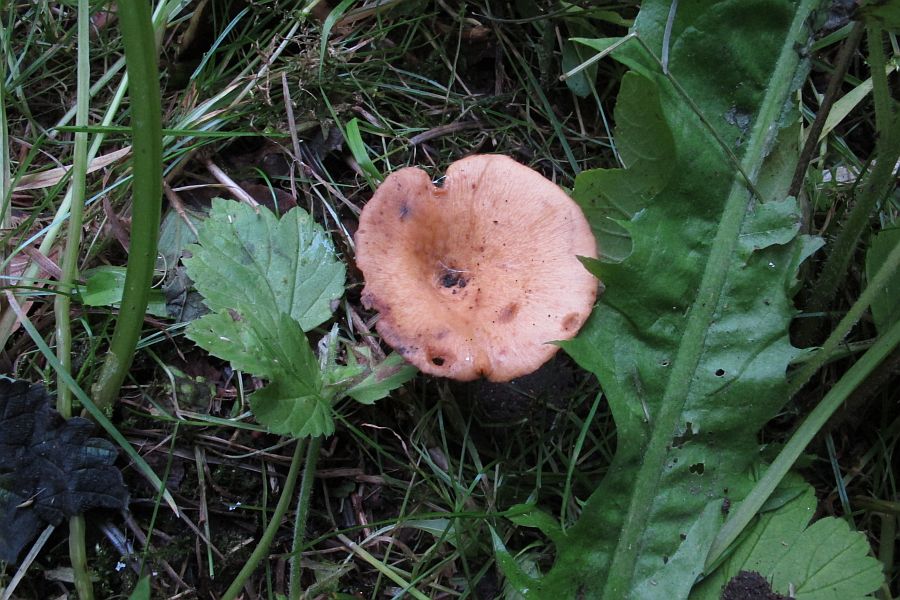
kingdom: Fungi
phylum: Basidiomycota
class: Agaricomycetes
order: Polyporales
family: Polyporaceae
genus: Cerioporus
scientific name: Cerioporus varius
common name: foranderlig stilkporesvamp
